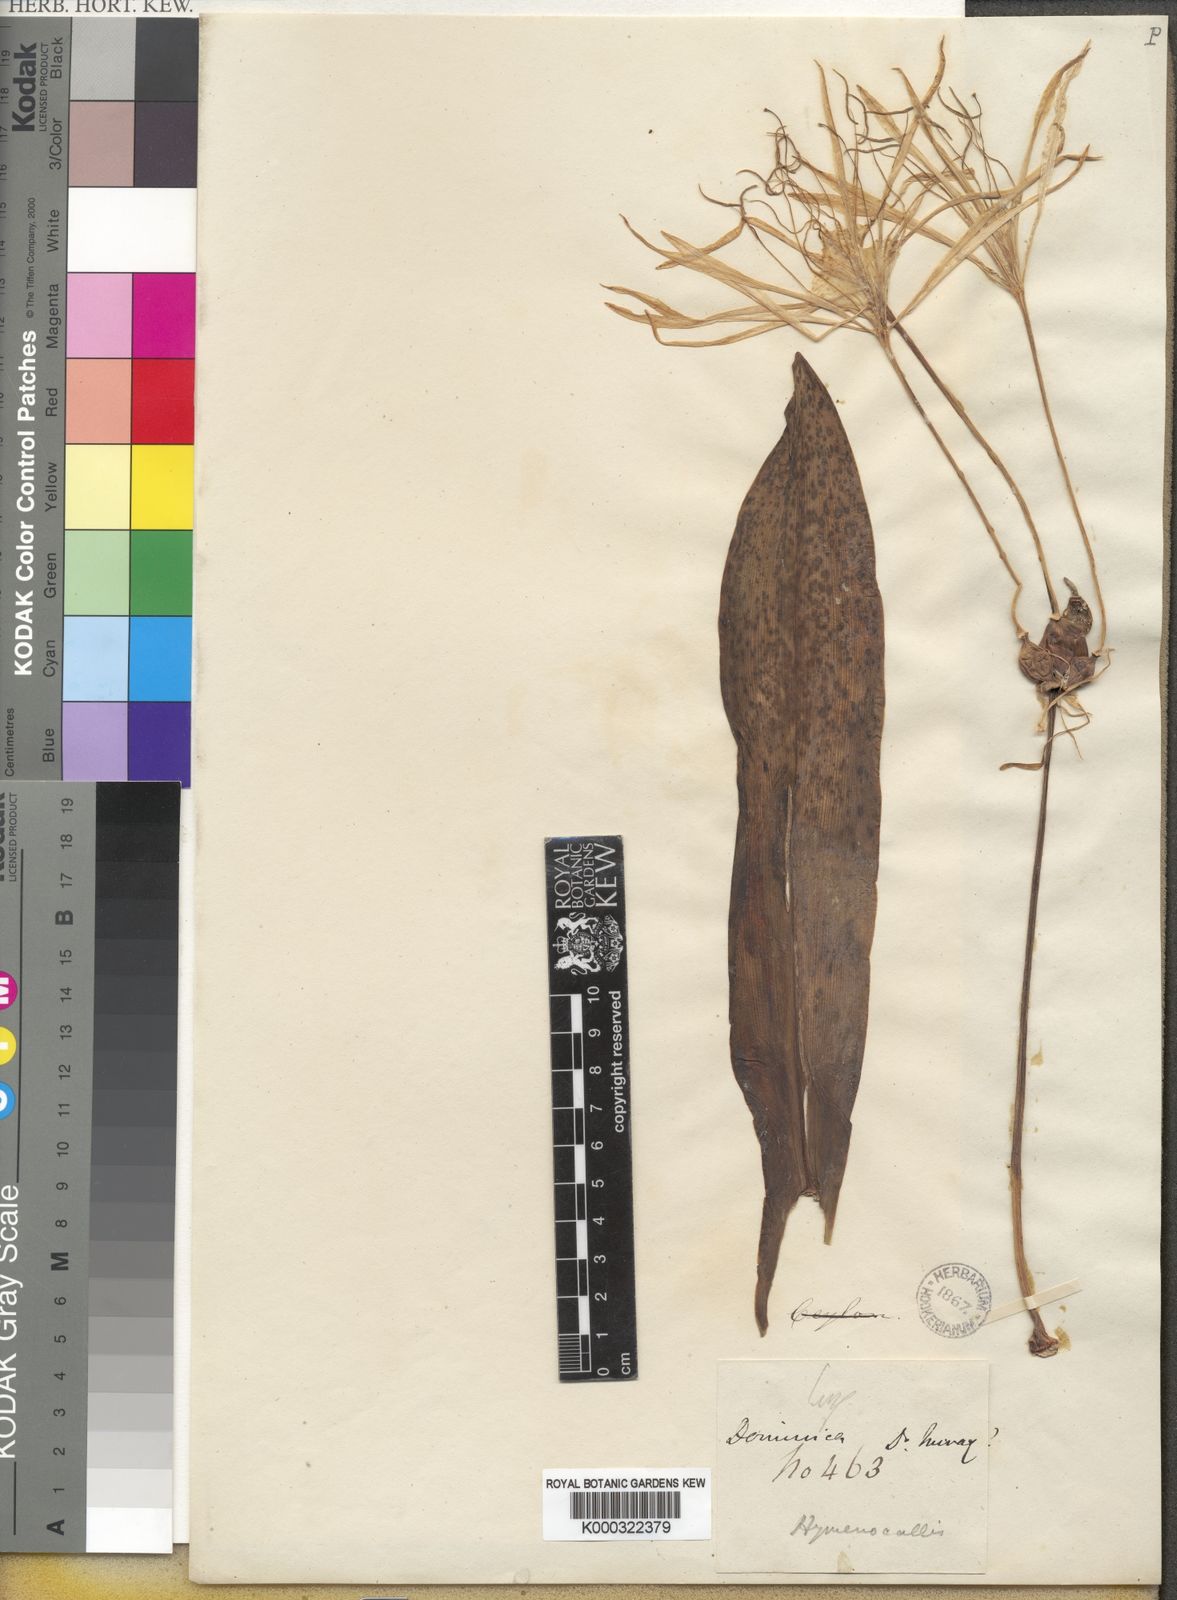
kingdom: Plantae
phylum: Tracheophyta
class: Liliopsida
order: Asparagales
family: Amaryllidaceae
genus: Hymenocallis
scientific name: Hymenocallis
